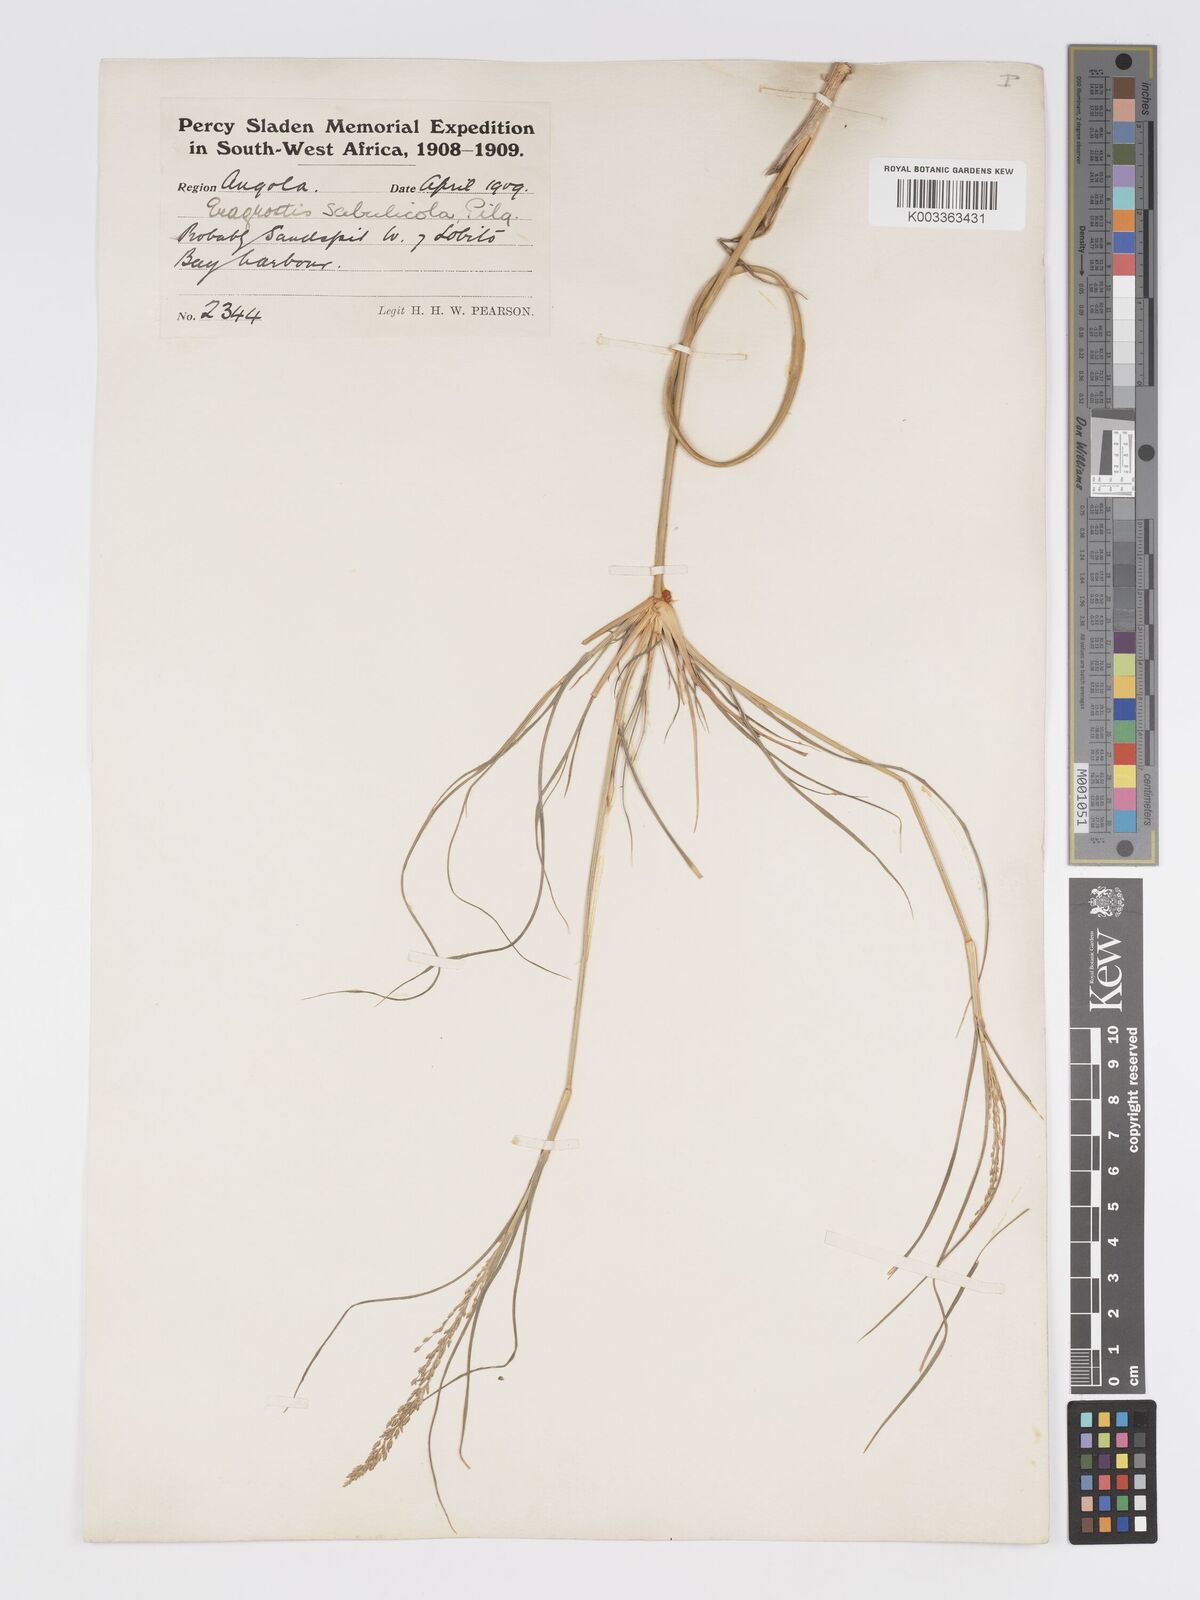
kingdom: Plantae
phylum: Tracheophyta
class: Liliopsida
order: Poales
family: Poaceae
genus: Eragrostis
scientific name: Eragrostis prolifera
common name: Dominican lovegrass
